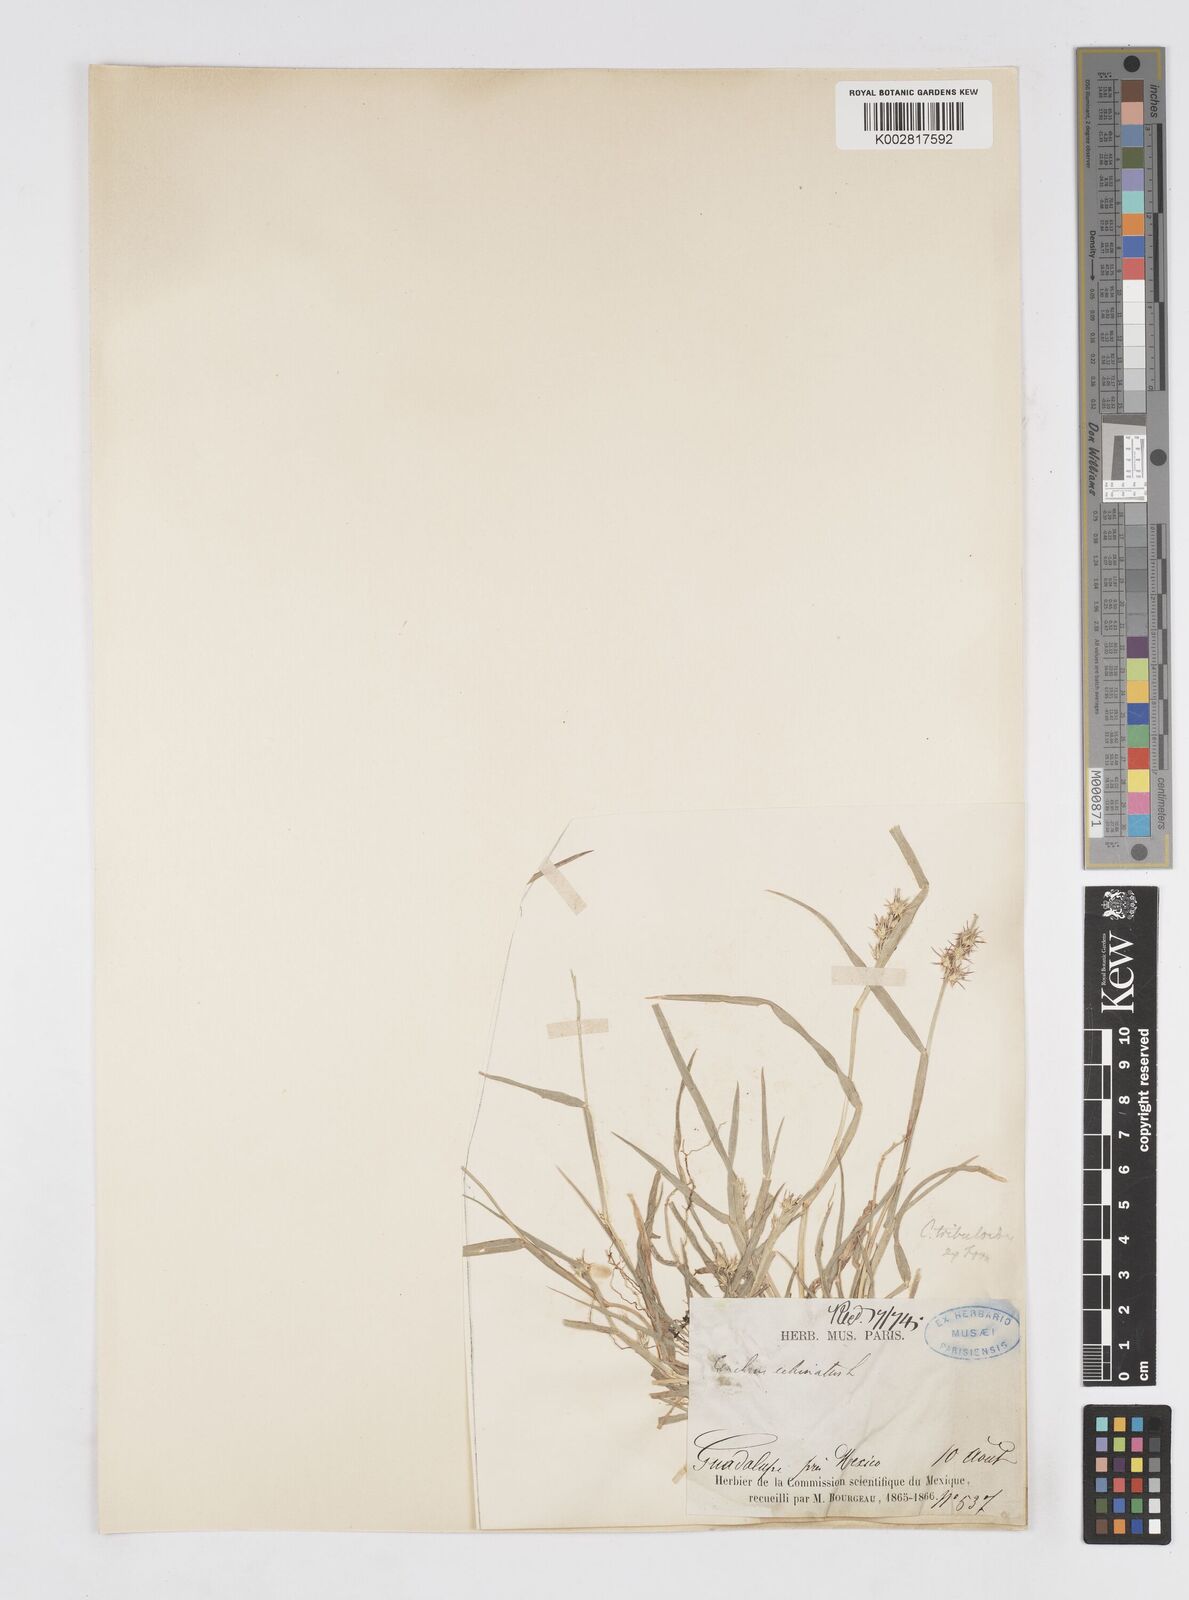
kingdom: Plantae
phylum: Tracheophyta
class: Liliopsida
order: Poales
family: Poaceae
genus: Cenchrus
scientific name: Cenchrus spinifex
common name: Coast sandbur
